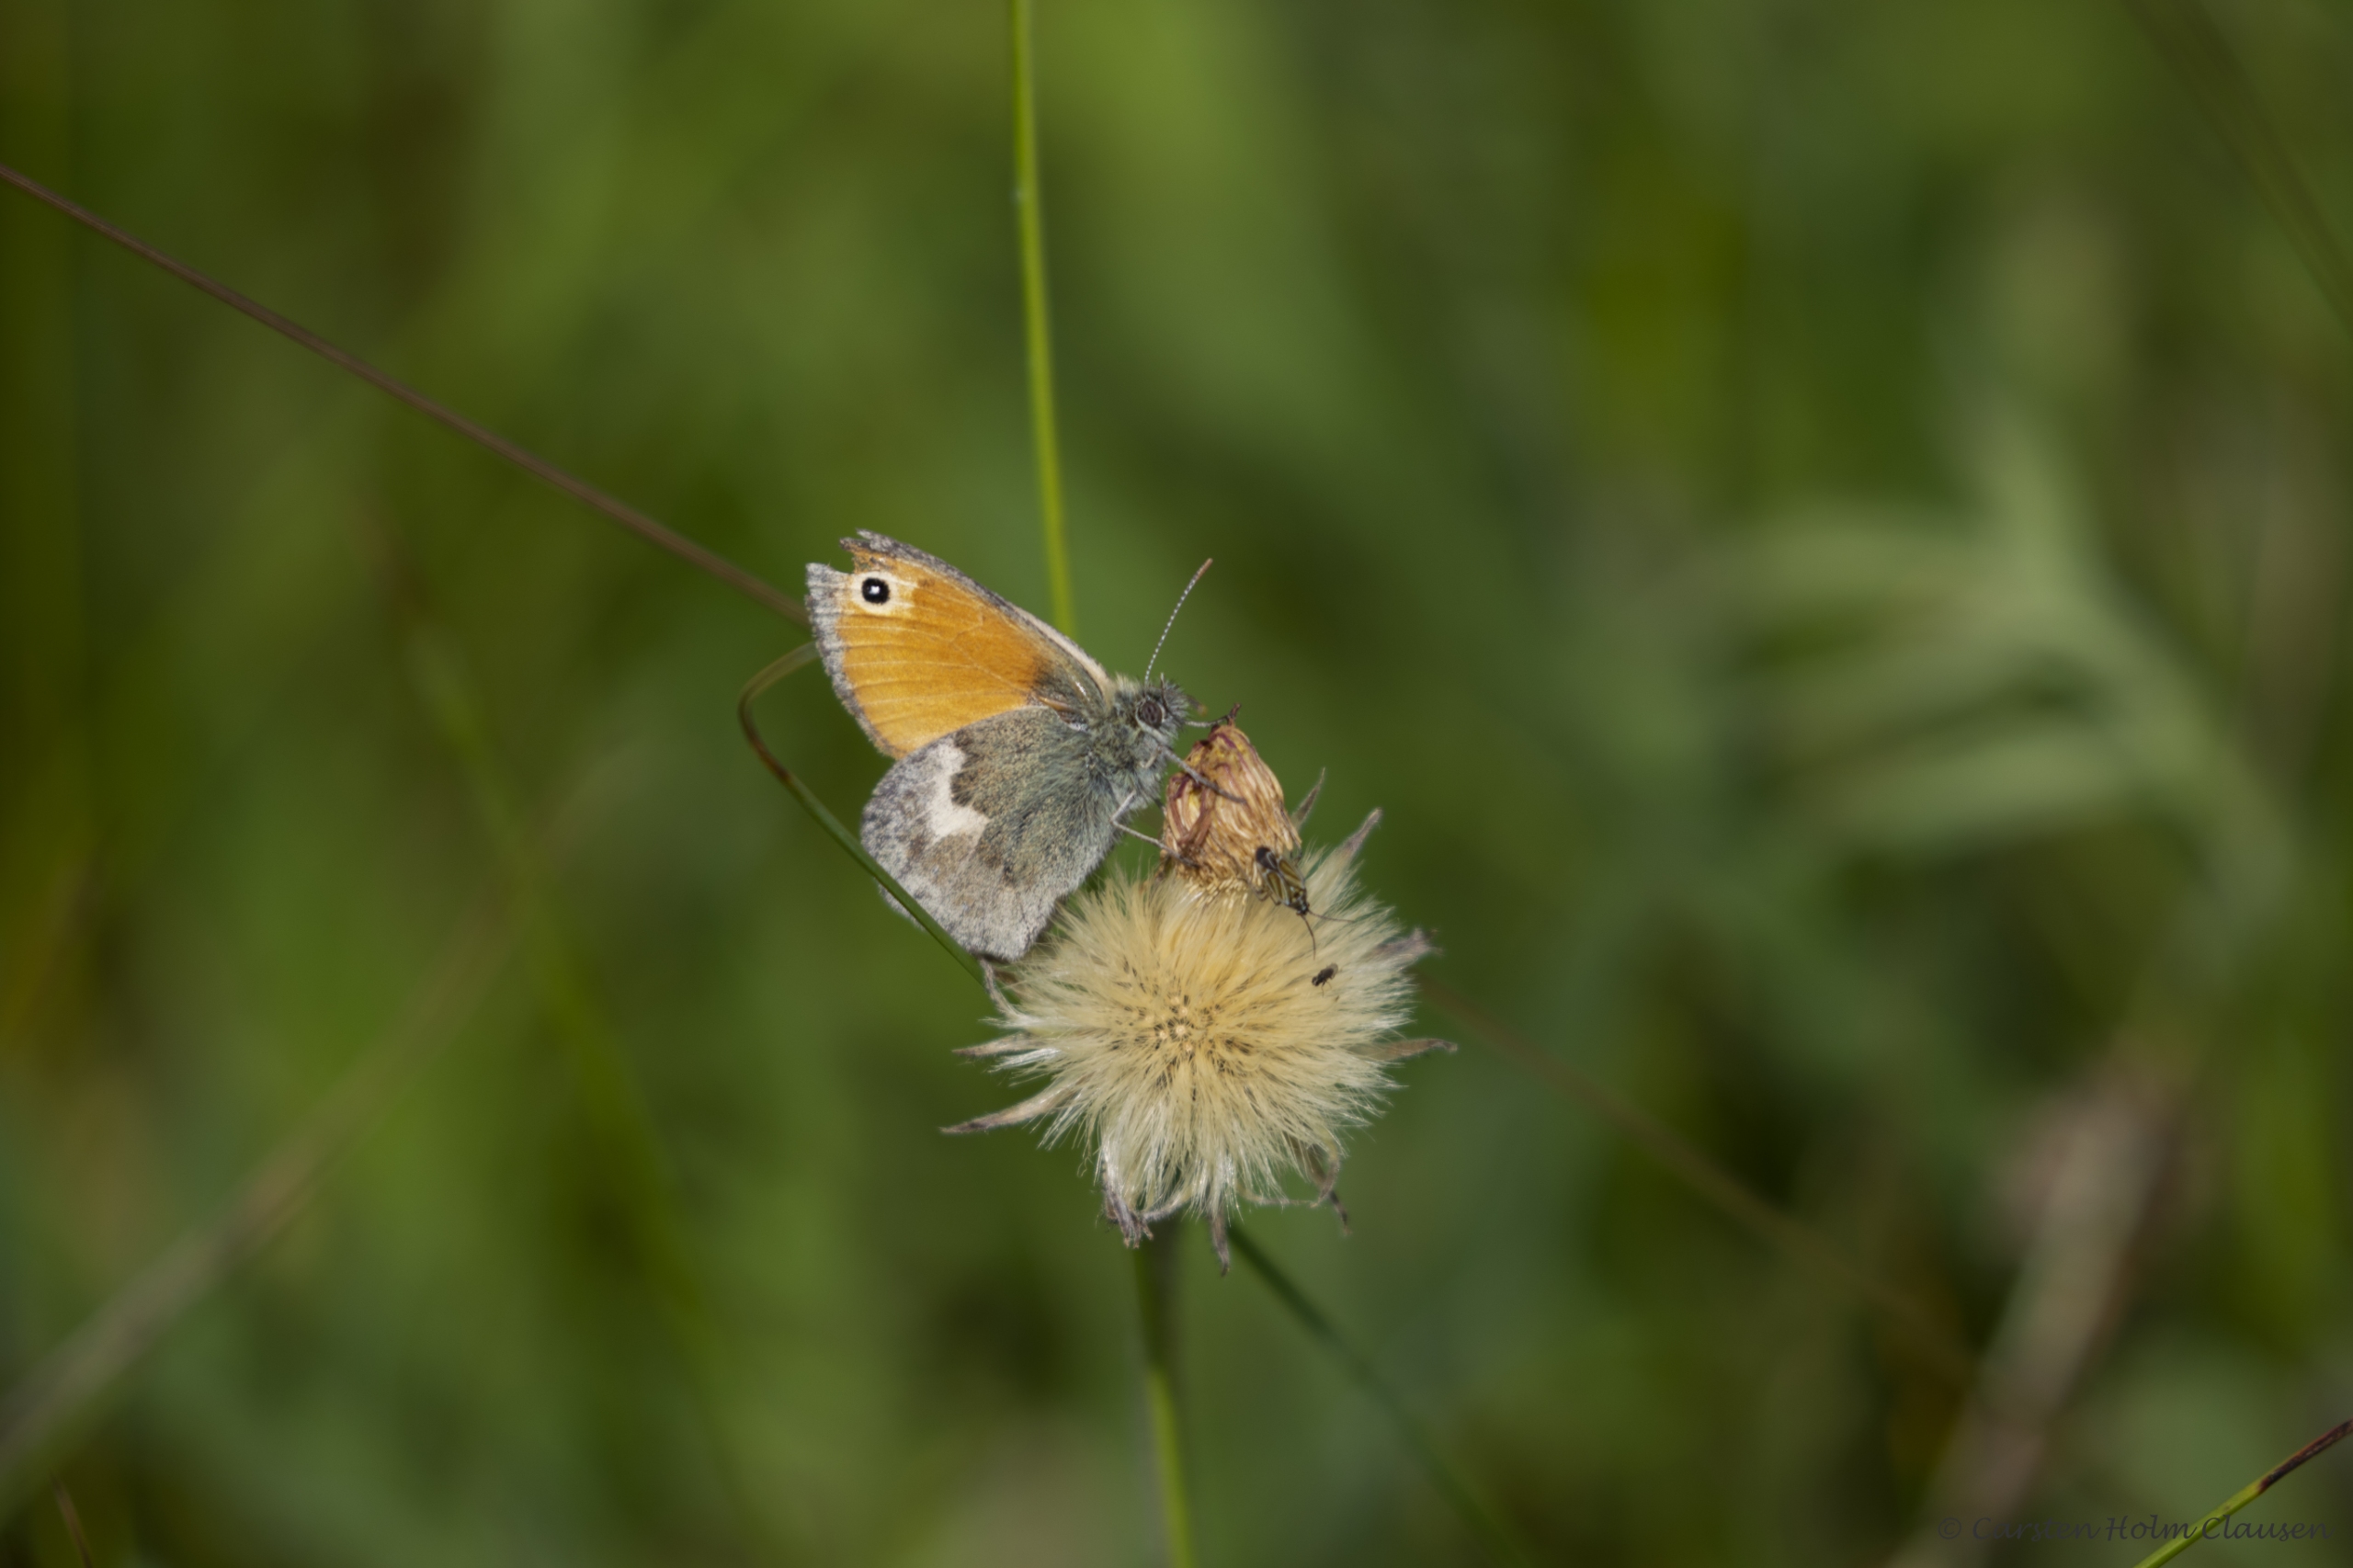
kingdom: Animalia
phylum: Arthropoda
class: Insecta
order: Lepidoptera
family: Nymphalidae
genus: Coenonympha
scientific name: Coenonympha pamphilus
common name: Okkergul randøje
